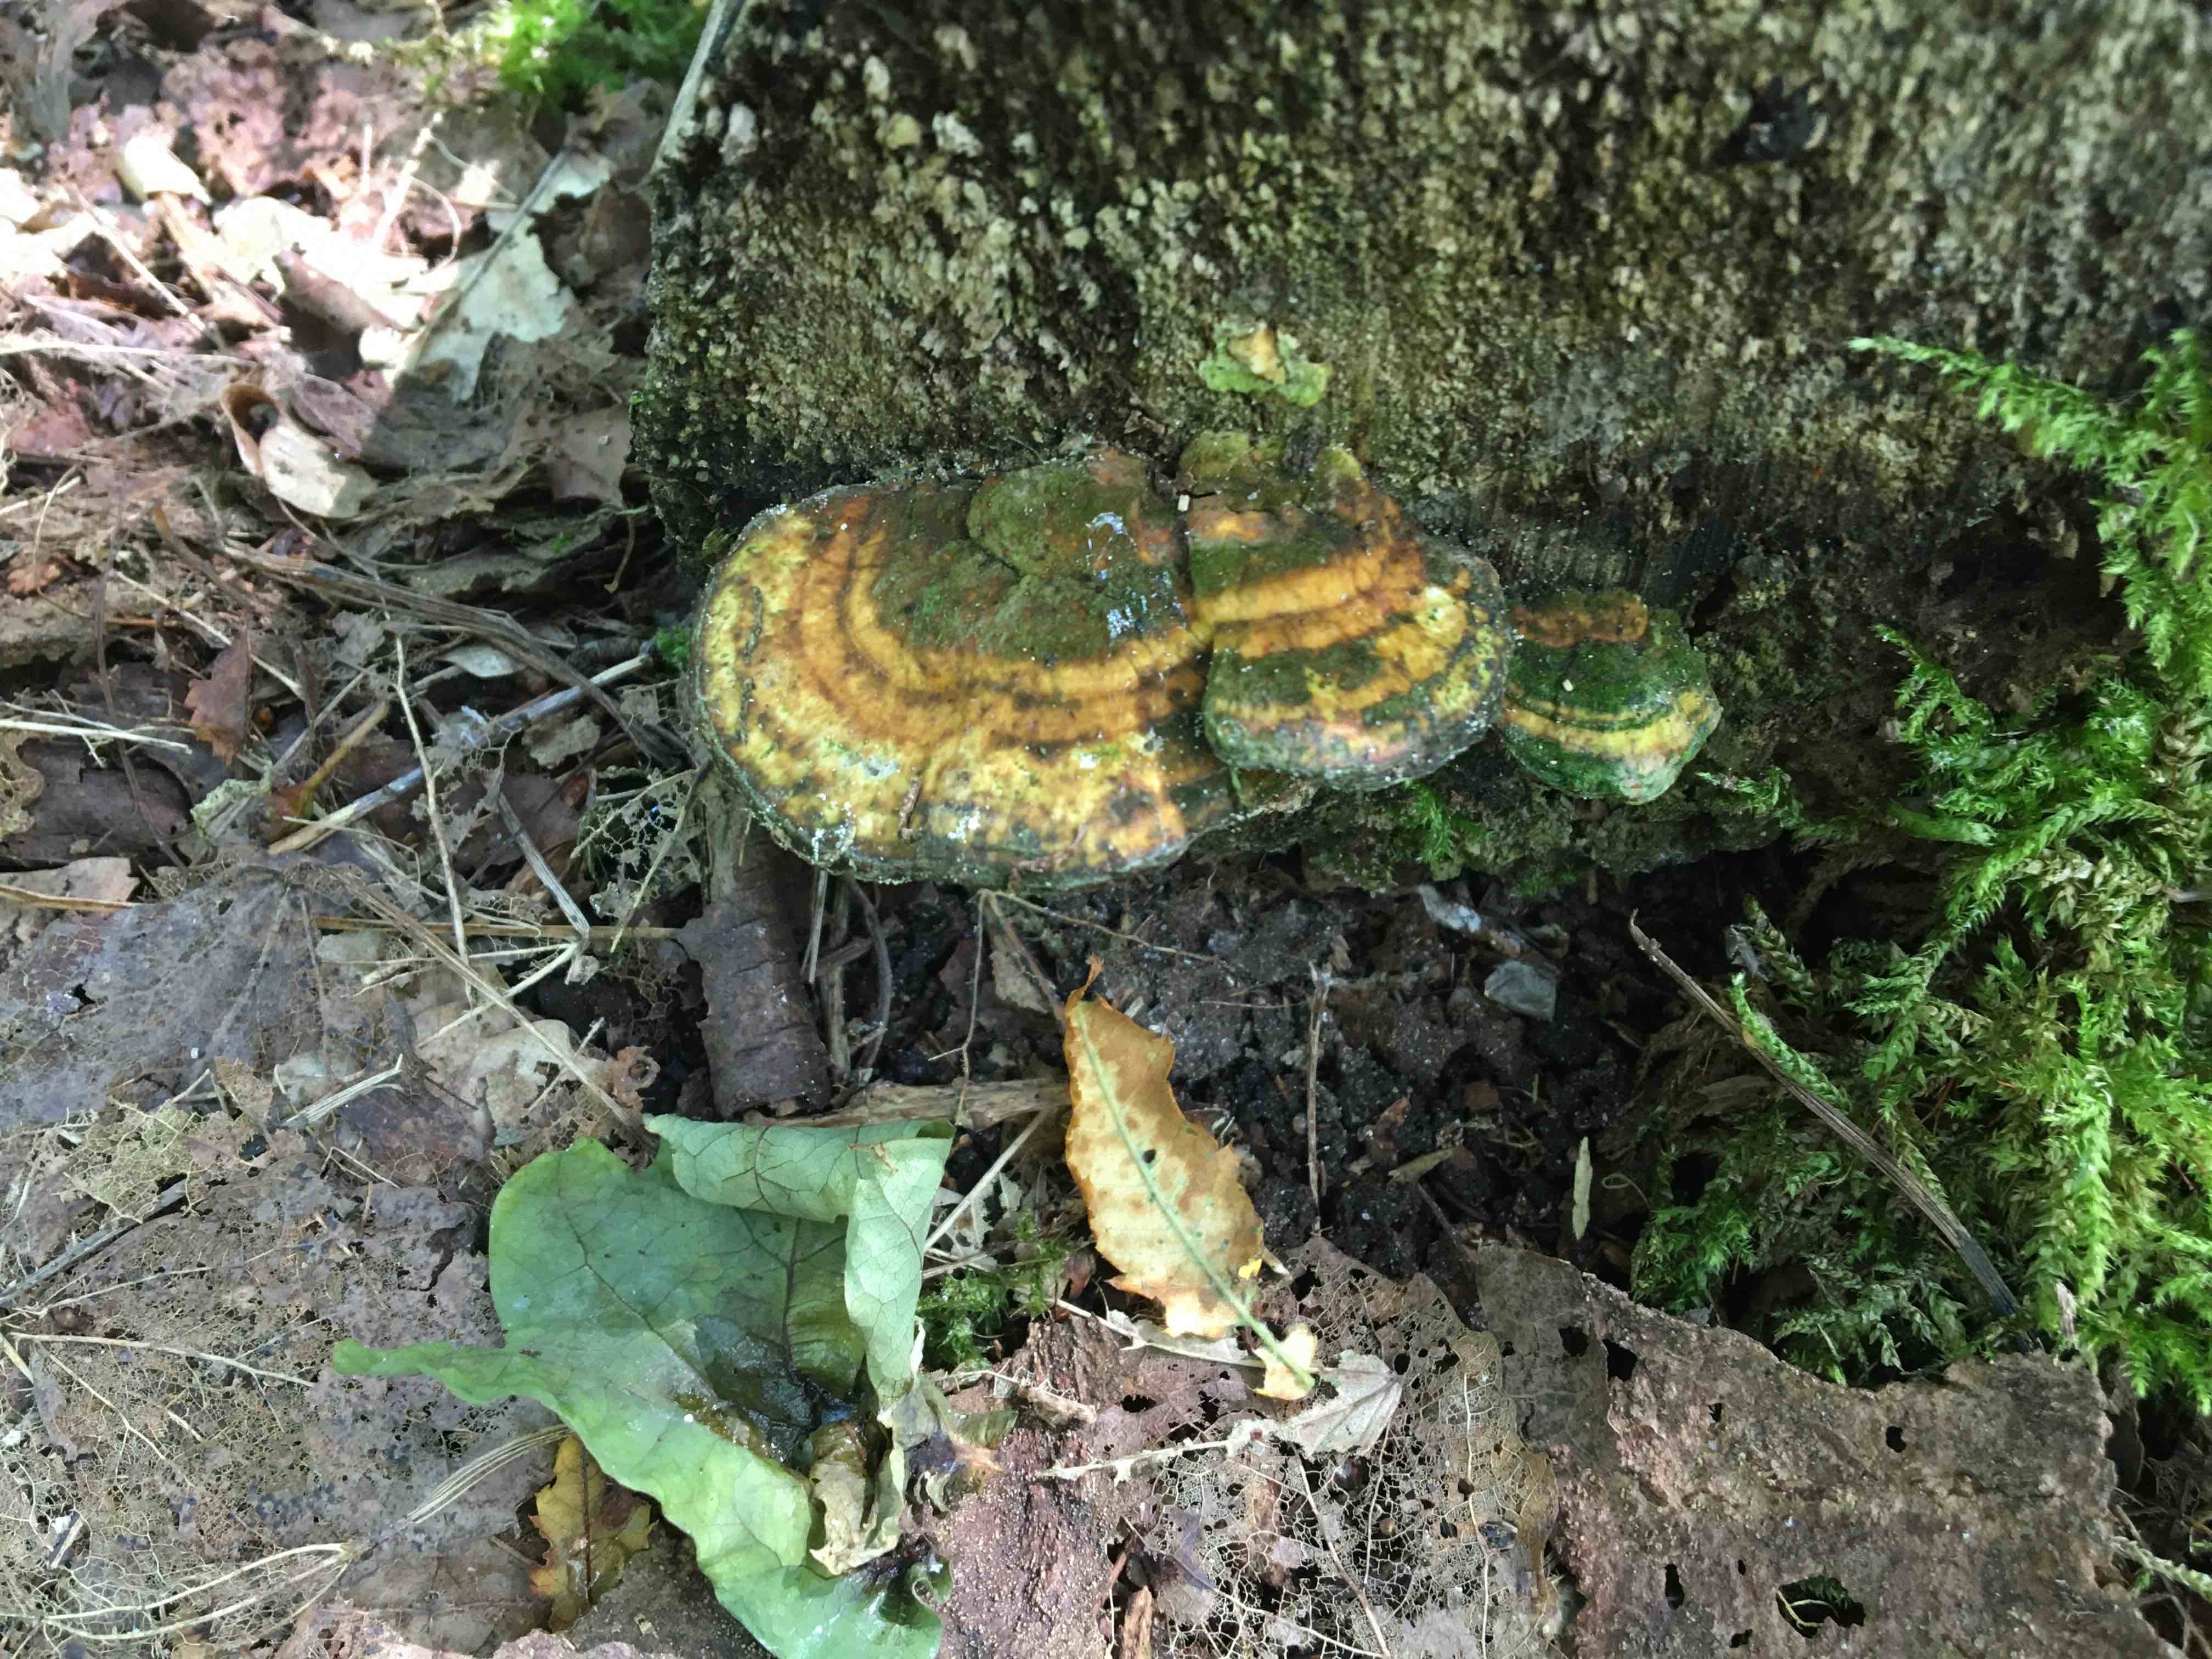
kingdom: Fungi
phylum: Basidiomycota
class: Agaricomycetes
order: Polyporales
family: Polyporaceae
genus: Trametes
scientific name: Trametes
